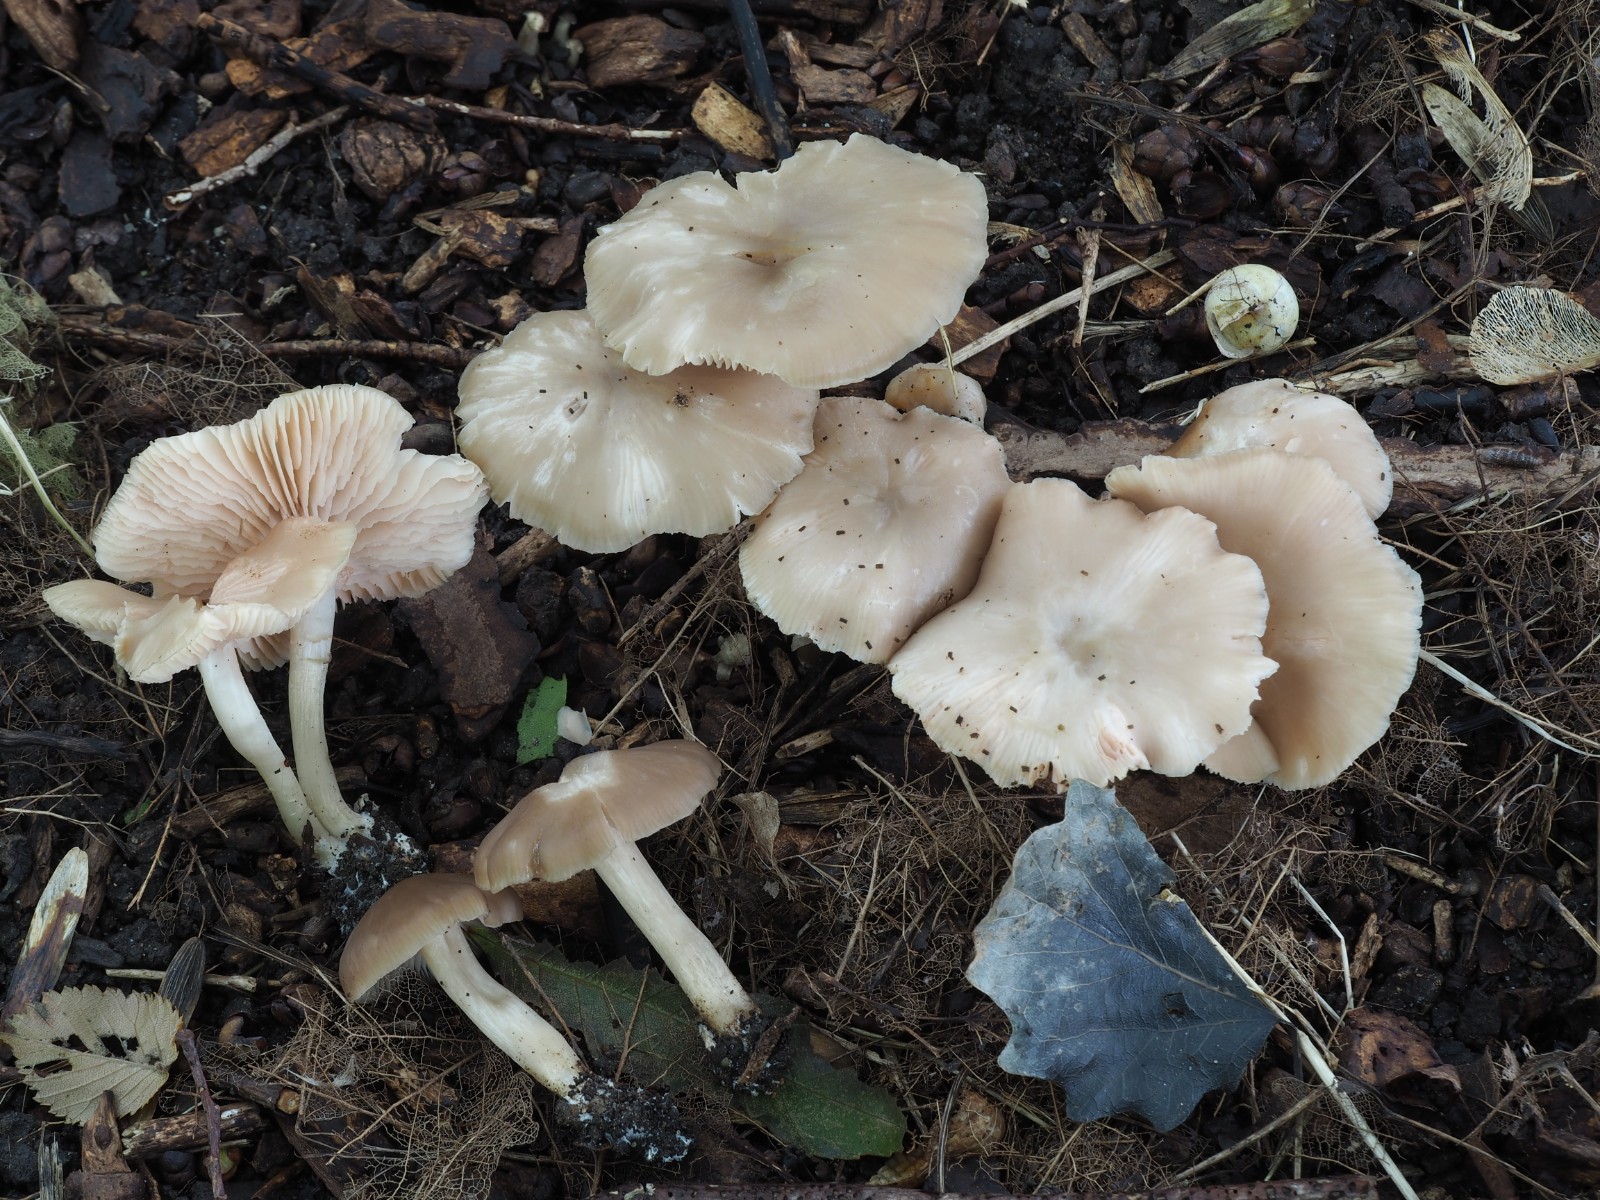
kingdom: Fungi
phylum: Basidiomycota
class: Agaricomycetes
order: Agaricales
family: Entolomataceae
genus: Entoloma
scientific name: Entoloma sericatum
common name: rank rødblad
